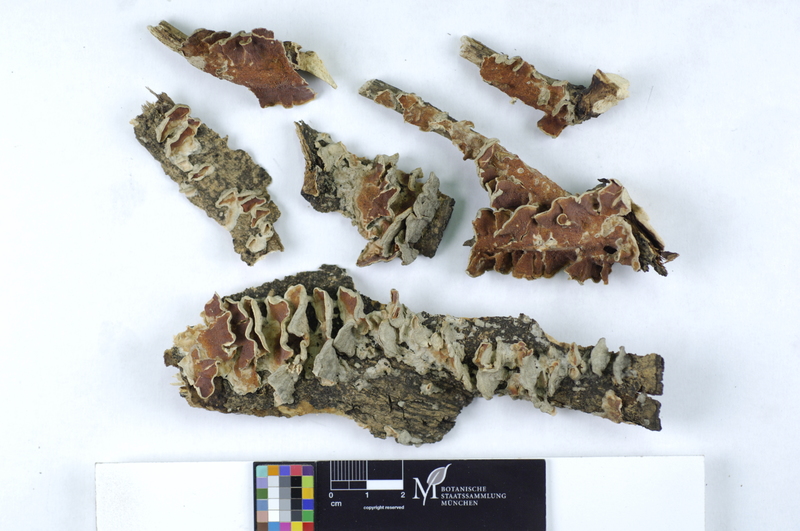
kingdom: Fungi
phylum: Basidiomycota
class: Agaricomycetes
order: Polyporales
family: Irpicaceae
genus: Byssomerulius
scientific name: Byssomerulius corium
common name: Netted crust
